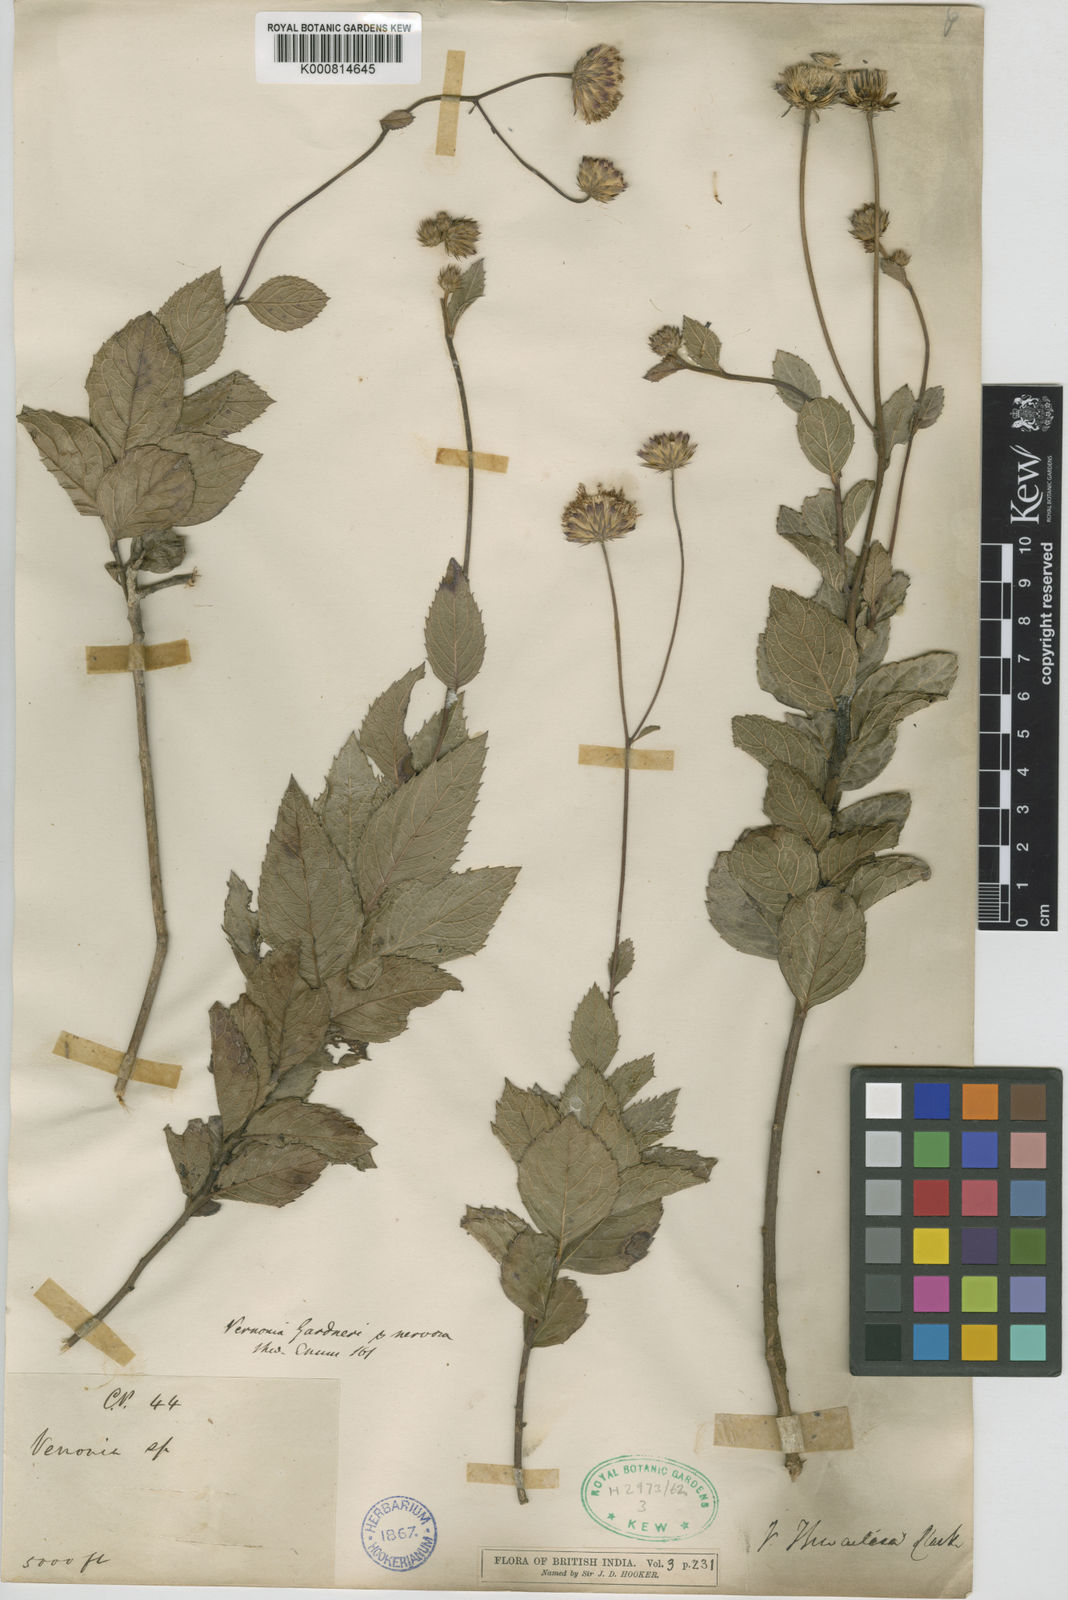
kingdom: Plantae
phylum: Tracheophyta
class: Magnoliopsida
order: Asterales
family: Asteraceae
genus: Acilepis
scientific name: Acilepis thwaitesii
